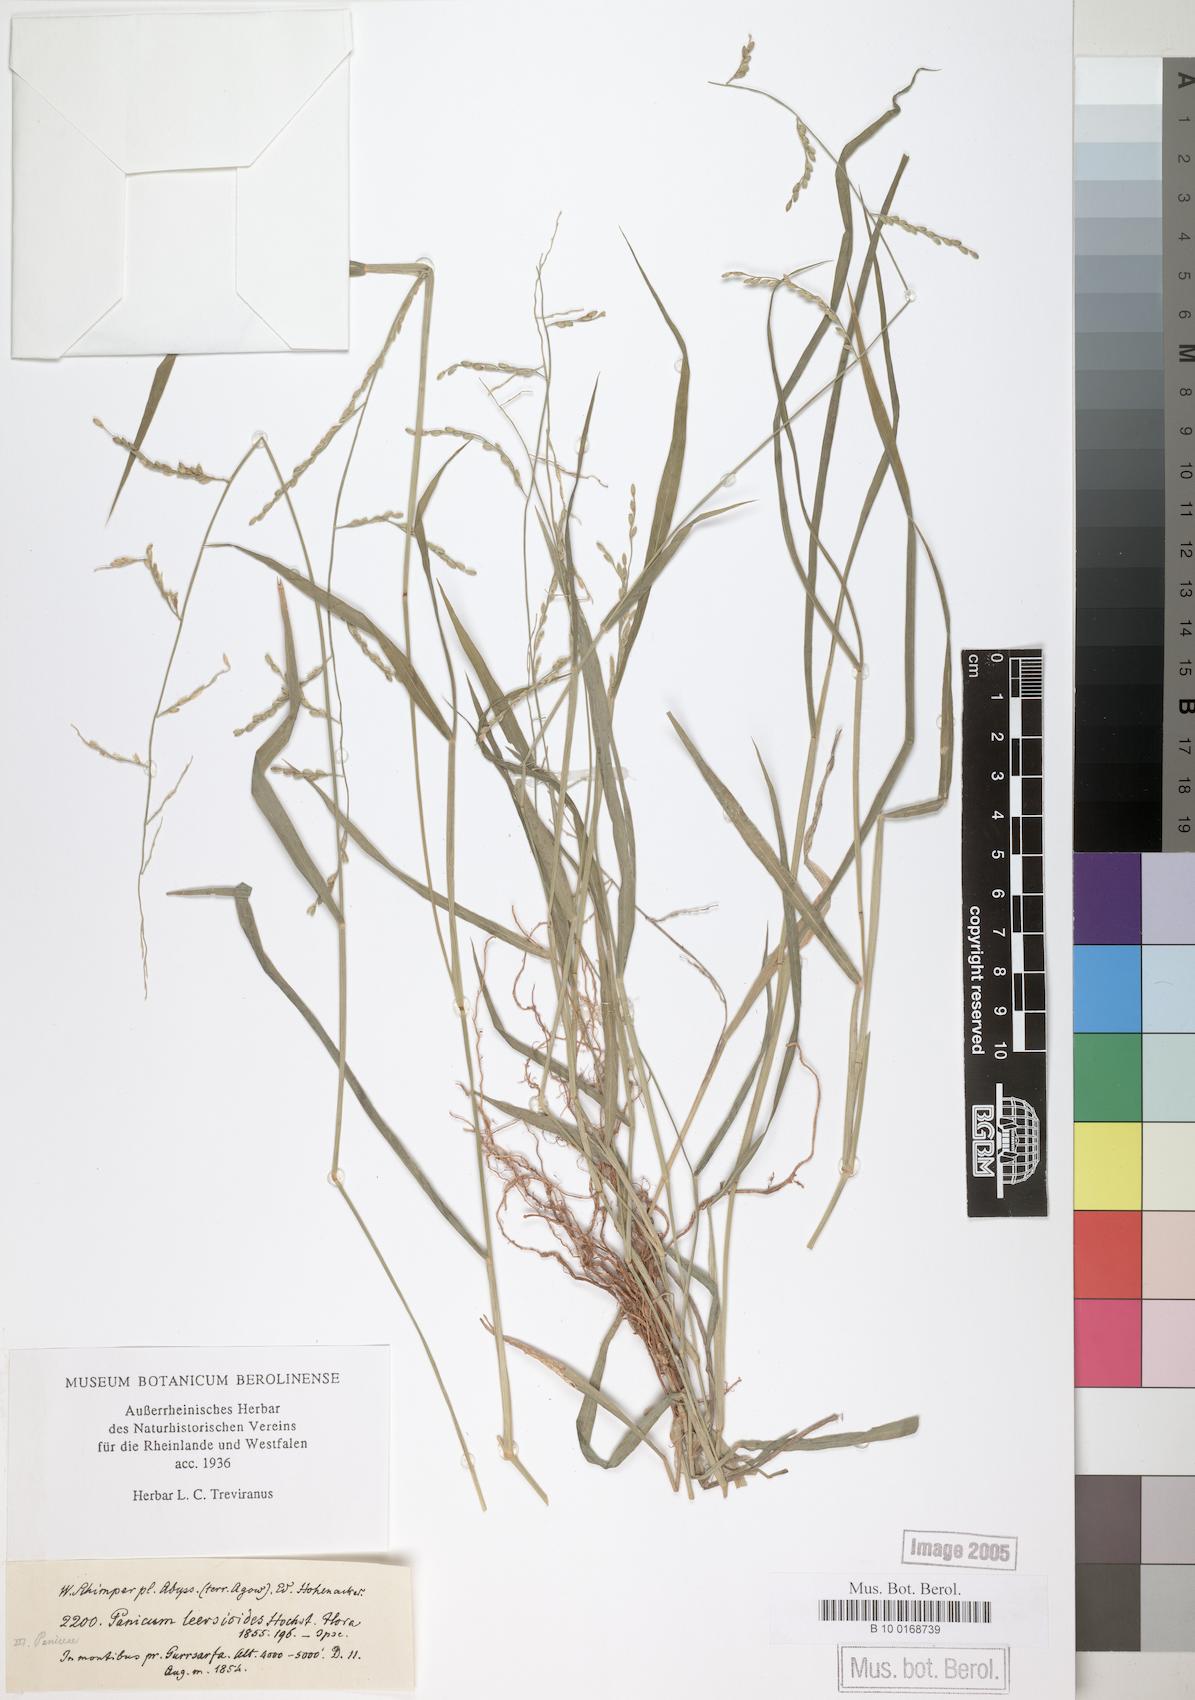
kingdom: Plantae
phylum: Tracheophyta
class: Liliopsida
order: Poales
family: Poaceae
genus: Urochloa
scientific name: Urochloa leersioides
